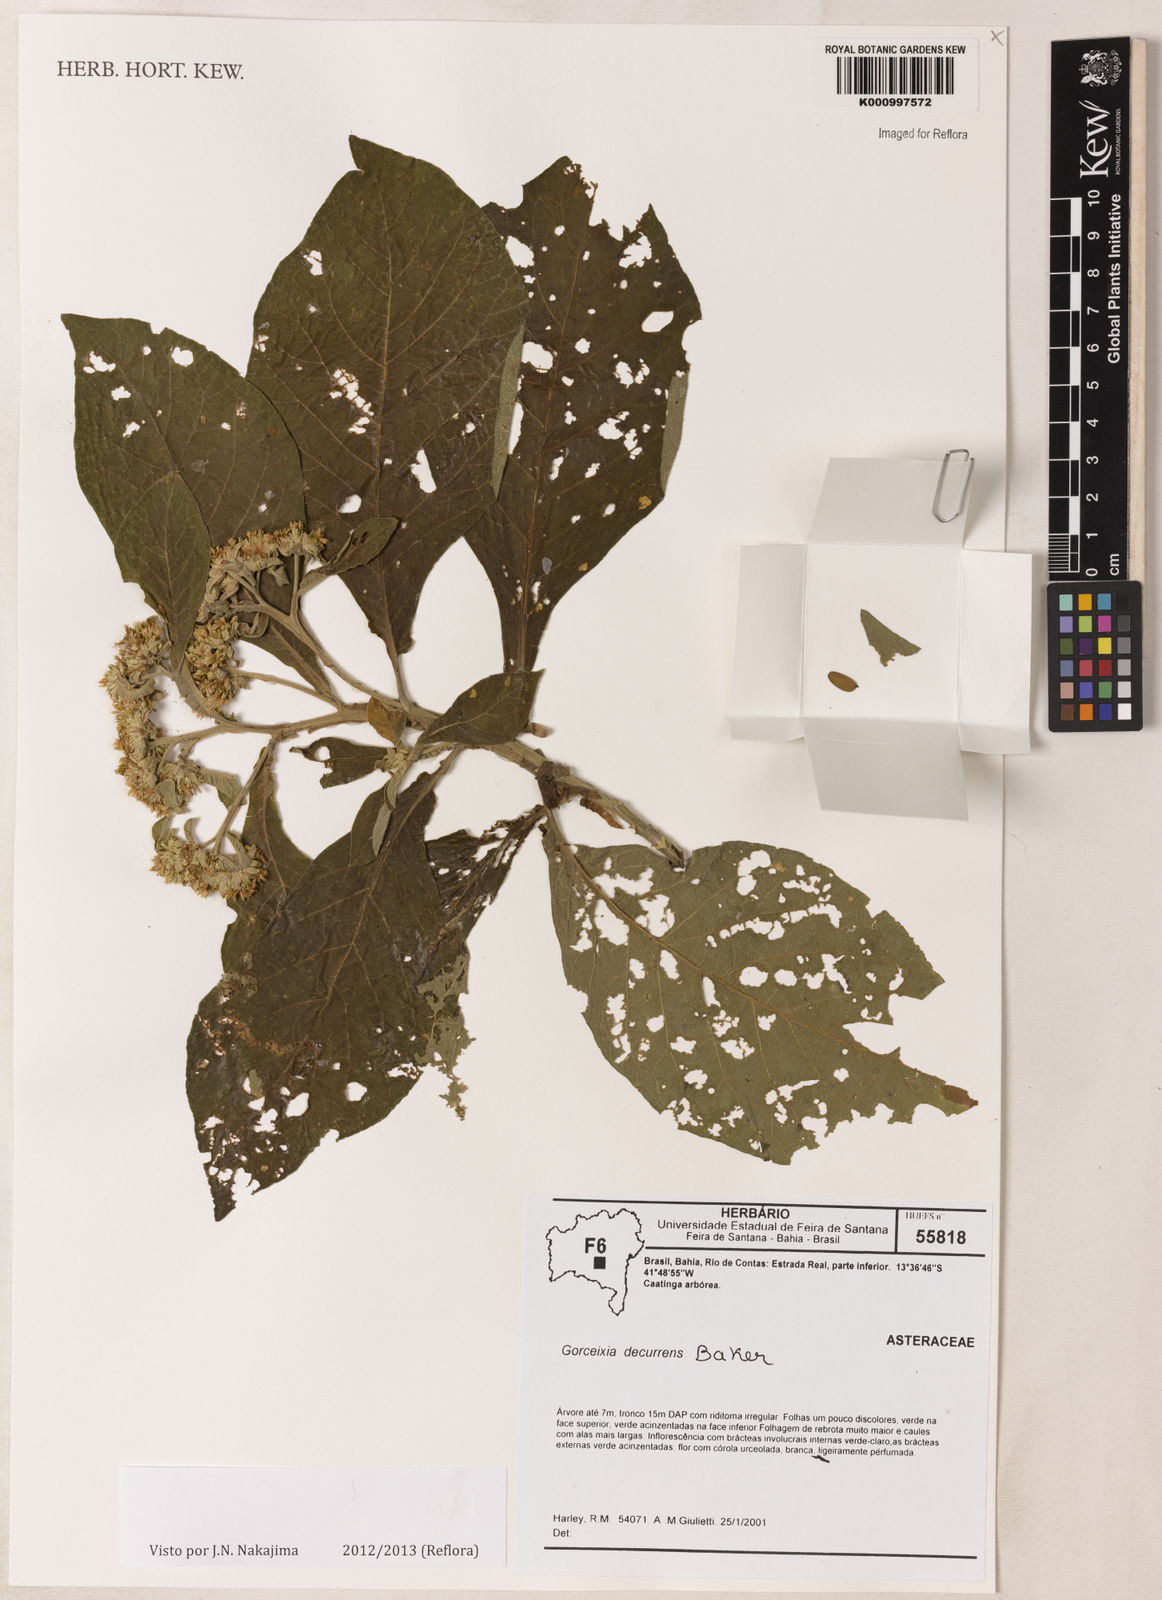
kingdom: Plantae
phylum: Tracheophyta
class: Magnoliopsida
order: Asterales
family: Asteraceae
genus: Gorceixia
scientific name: Gorceixia decurrens
